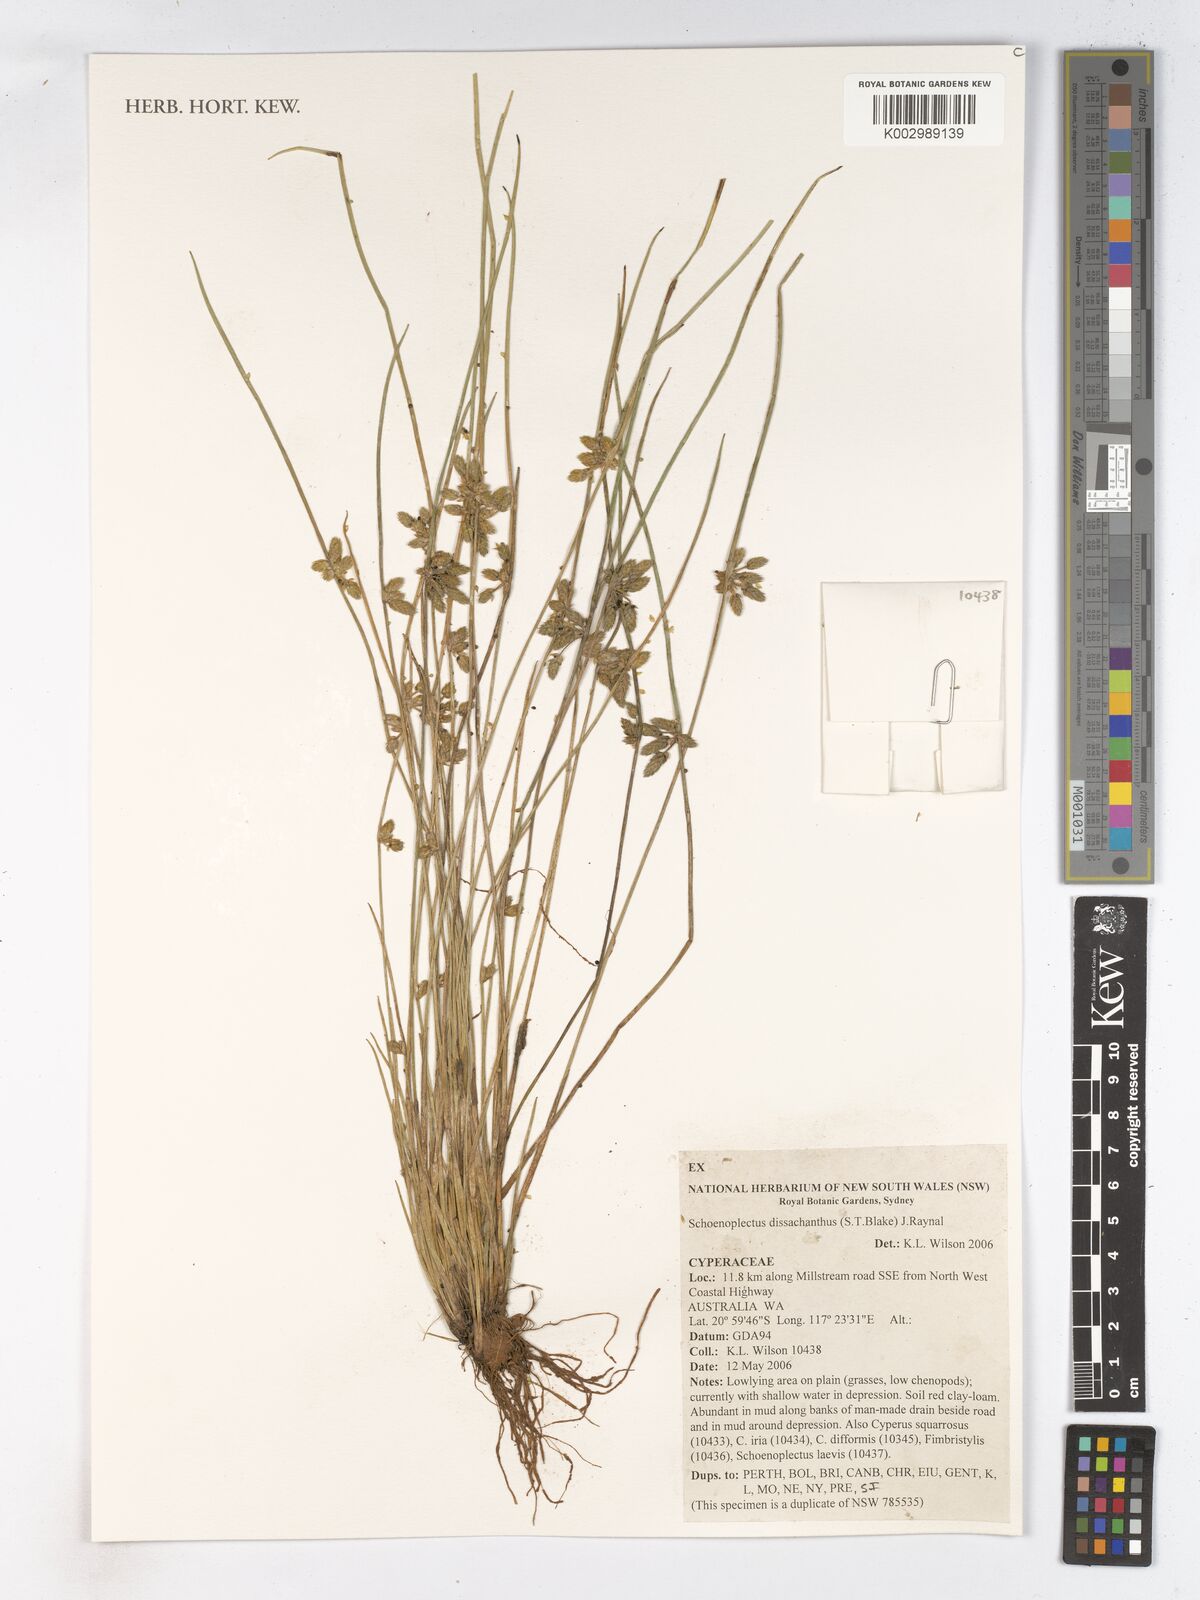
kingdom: Plantae
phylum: Tracheophyta
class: Liliopsida
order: Poales
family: Cyperaceae
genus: Schoenoplectiella
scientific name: Schoenoplectiella dissachantha
